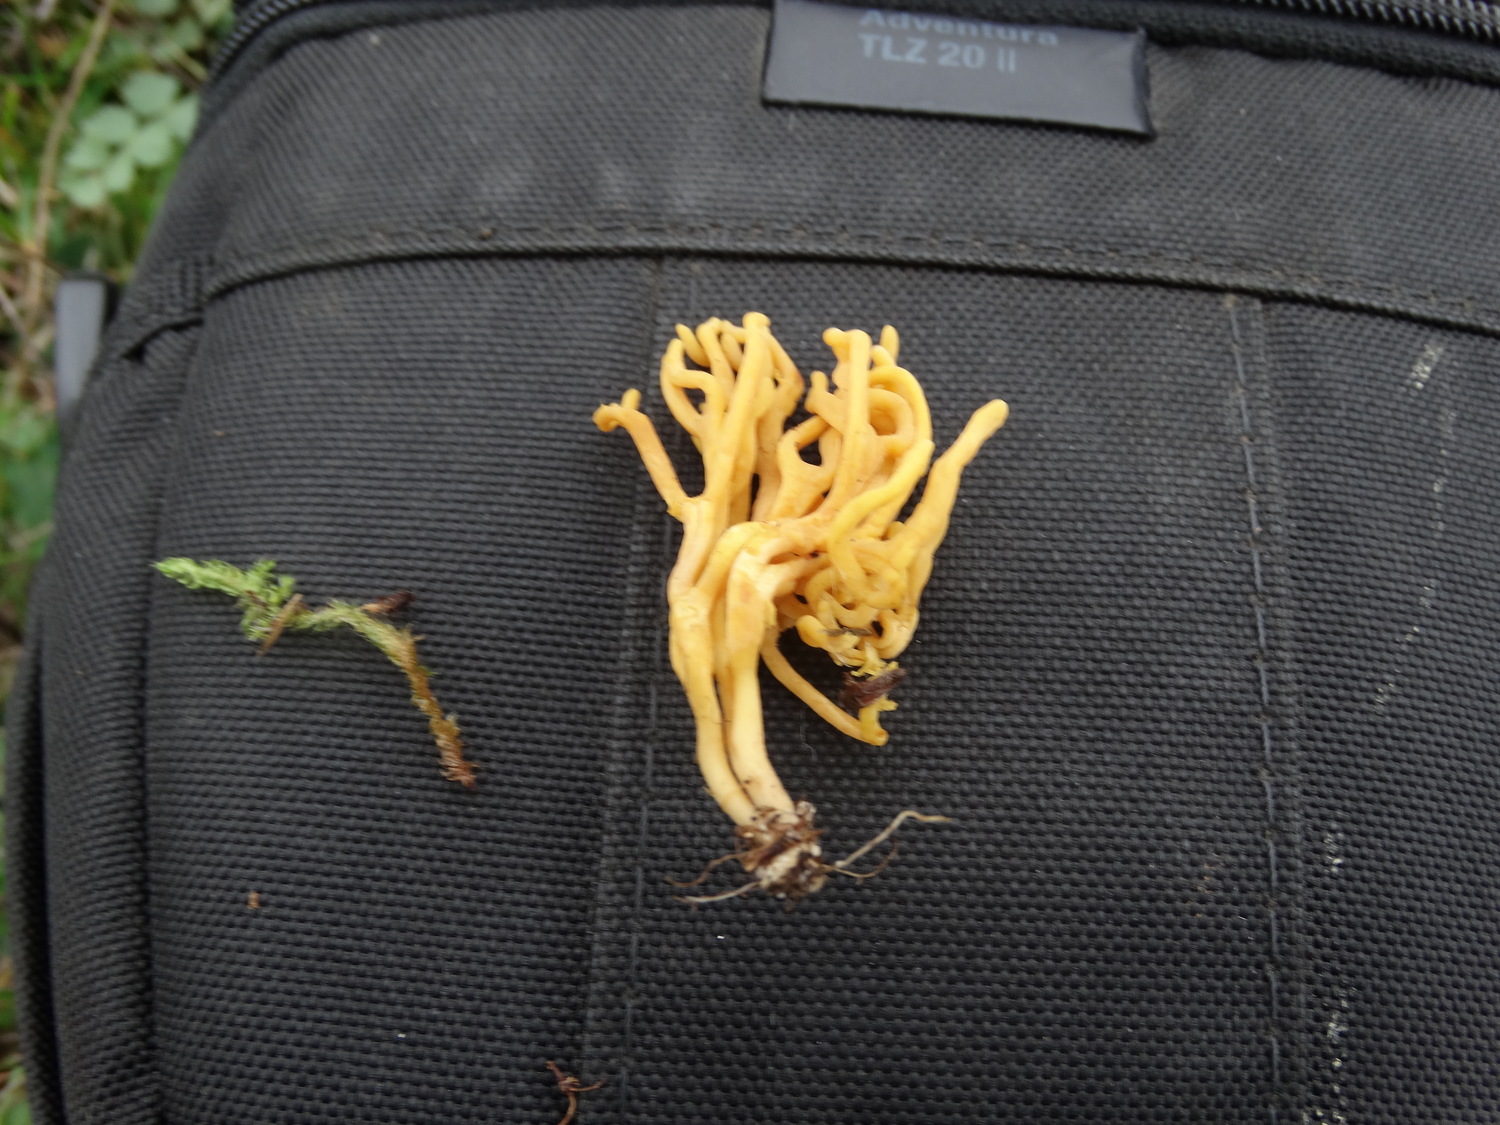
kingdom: Fungi
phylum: Basidiomycota
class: Agaricomycetes
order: Agaricales
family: Clavariaceae
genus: Clavulinopsis
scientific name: Clavulinopsis corniculata
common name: eng-køllesvamp
